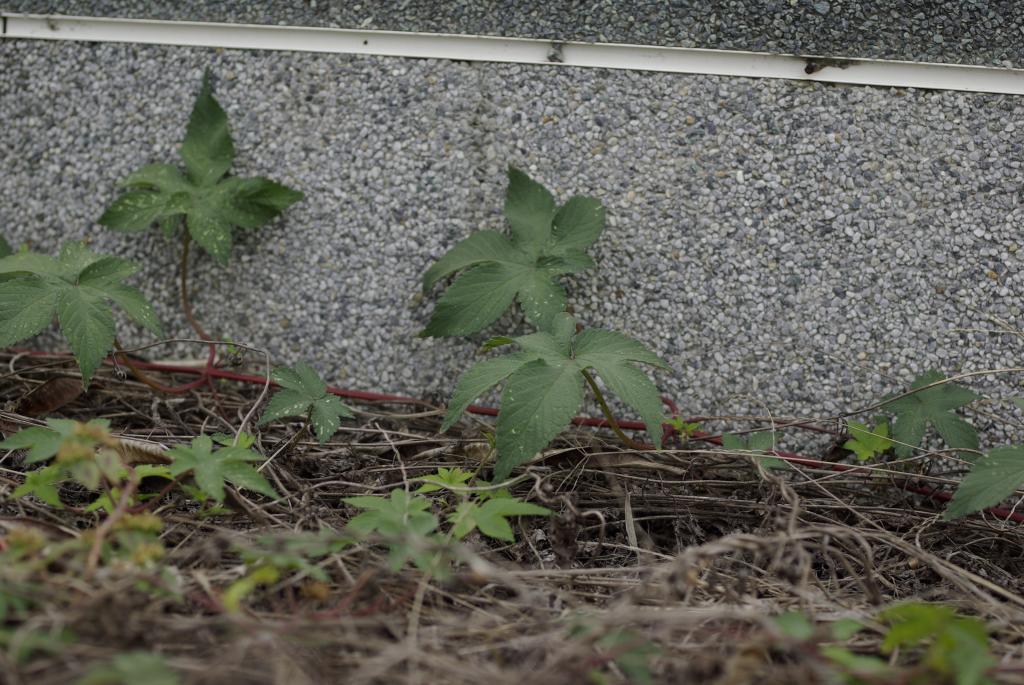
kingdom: Plantae
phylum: Tracheophyta
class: Magnoliopsida
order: Rosales
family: Cannabaceae
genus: Humulus
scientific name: Humulus scandens
